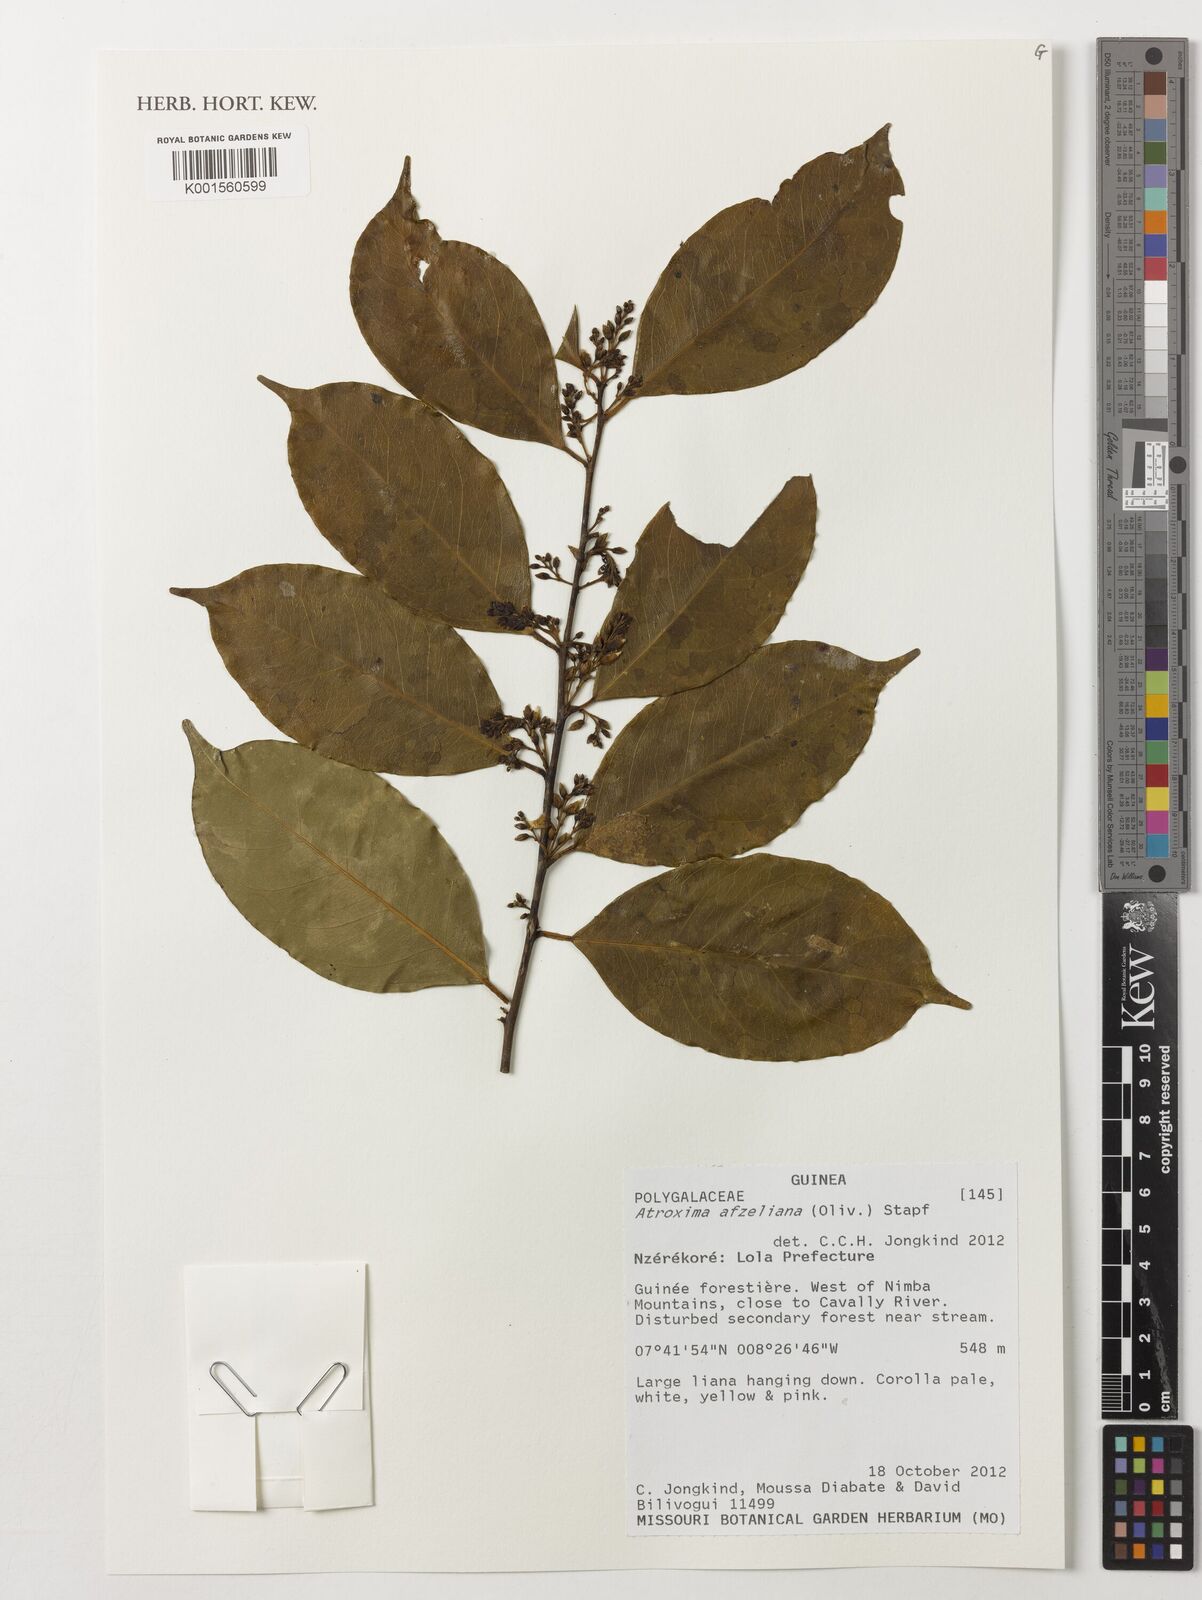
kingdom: Plantae
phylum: Tracheophyta
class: Magnoliopsida
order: Fabales
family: Polygalaceae
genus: Atroxima
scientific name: Atroxima afzeliana
